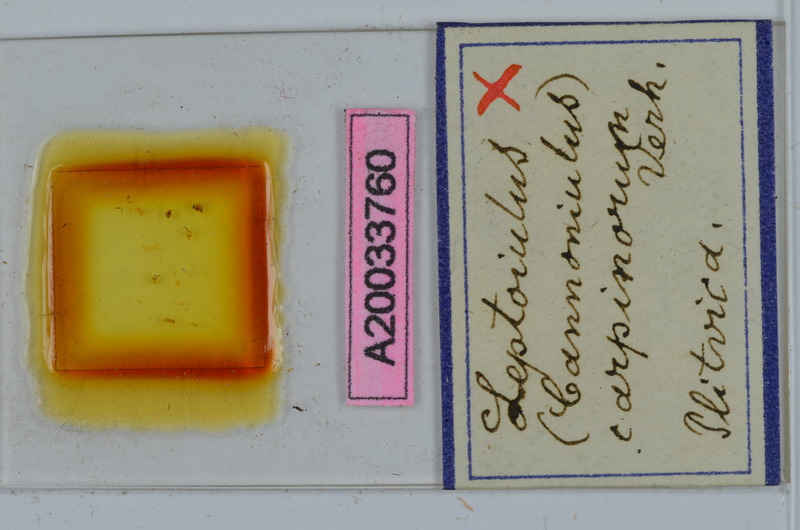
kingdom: Animalia
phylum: Arthropoda
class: Diplopoda
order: Julida
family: Julidae
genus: Leptoiulus
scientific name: Leptoiulus carpinorum
